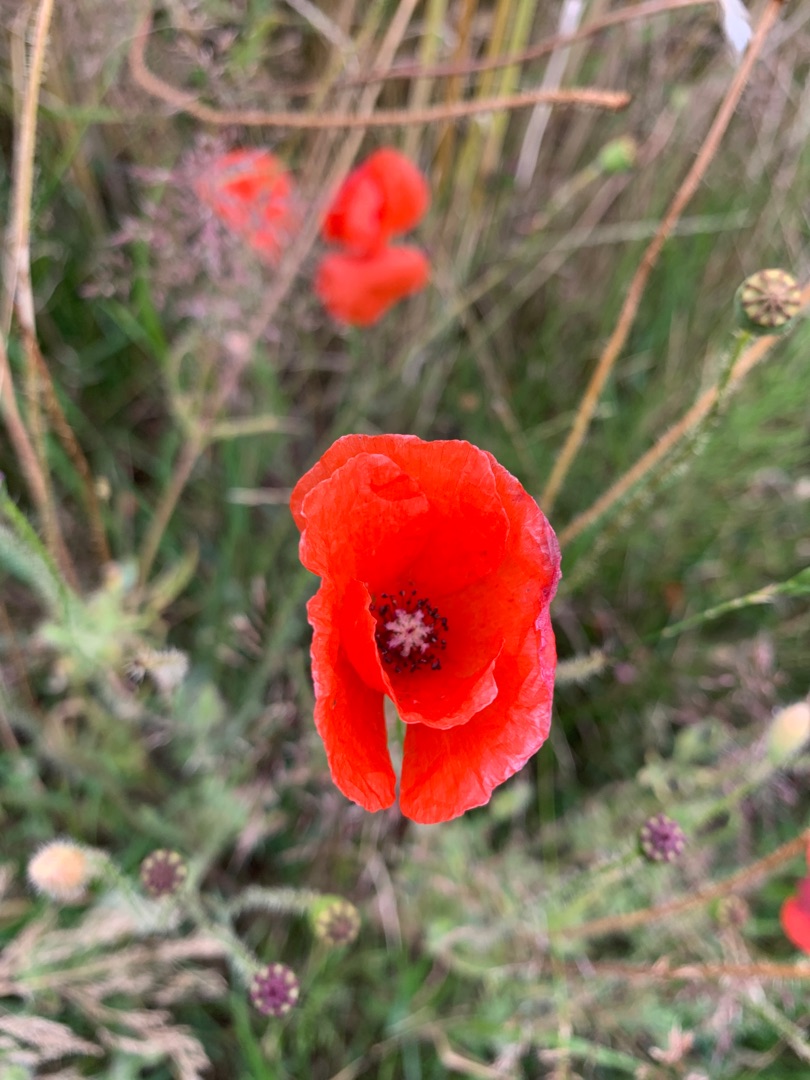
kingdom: Plantae
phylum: Tracheophyta
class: Magnoliopsida
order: Ranunculales
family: Papaveraceae
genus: Papaver
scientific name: Papaver rhoeas
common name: Korn-valmue
